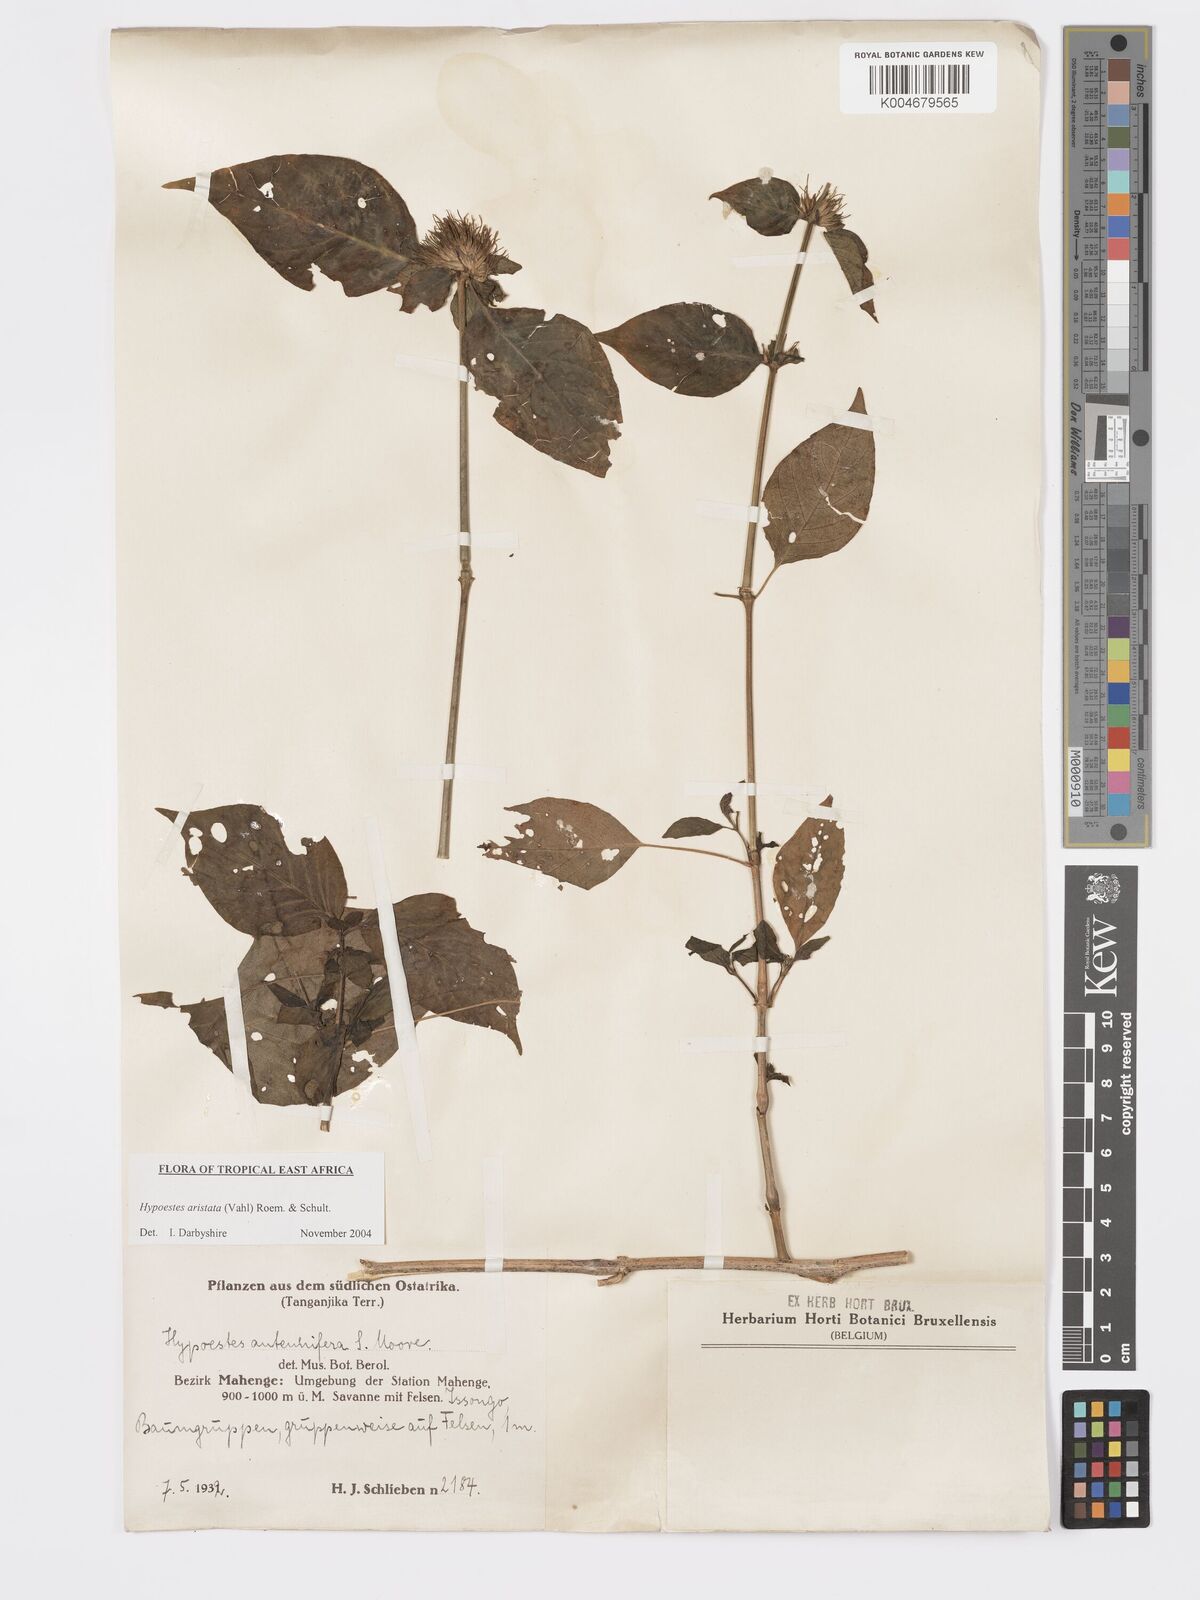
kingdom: Plantae
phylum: Tracheophyta
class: Magnoliopsida
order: Lamiales
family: Acanthaceae
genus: Hypoestes
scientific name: Hypoestes aristata
